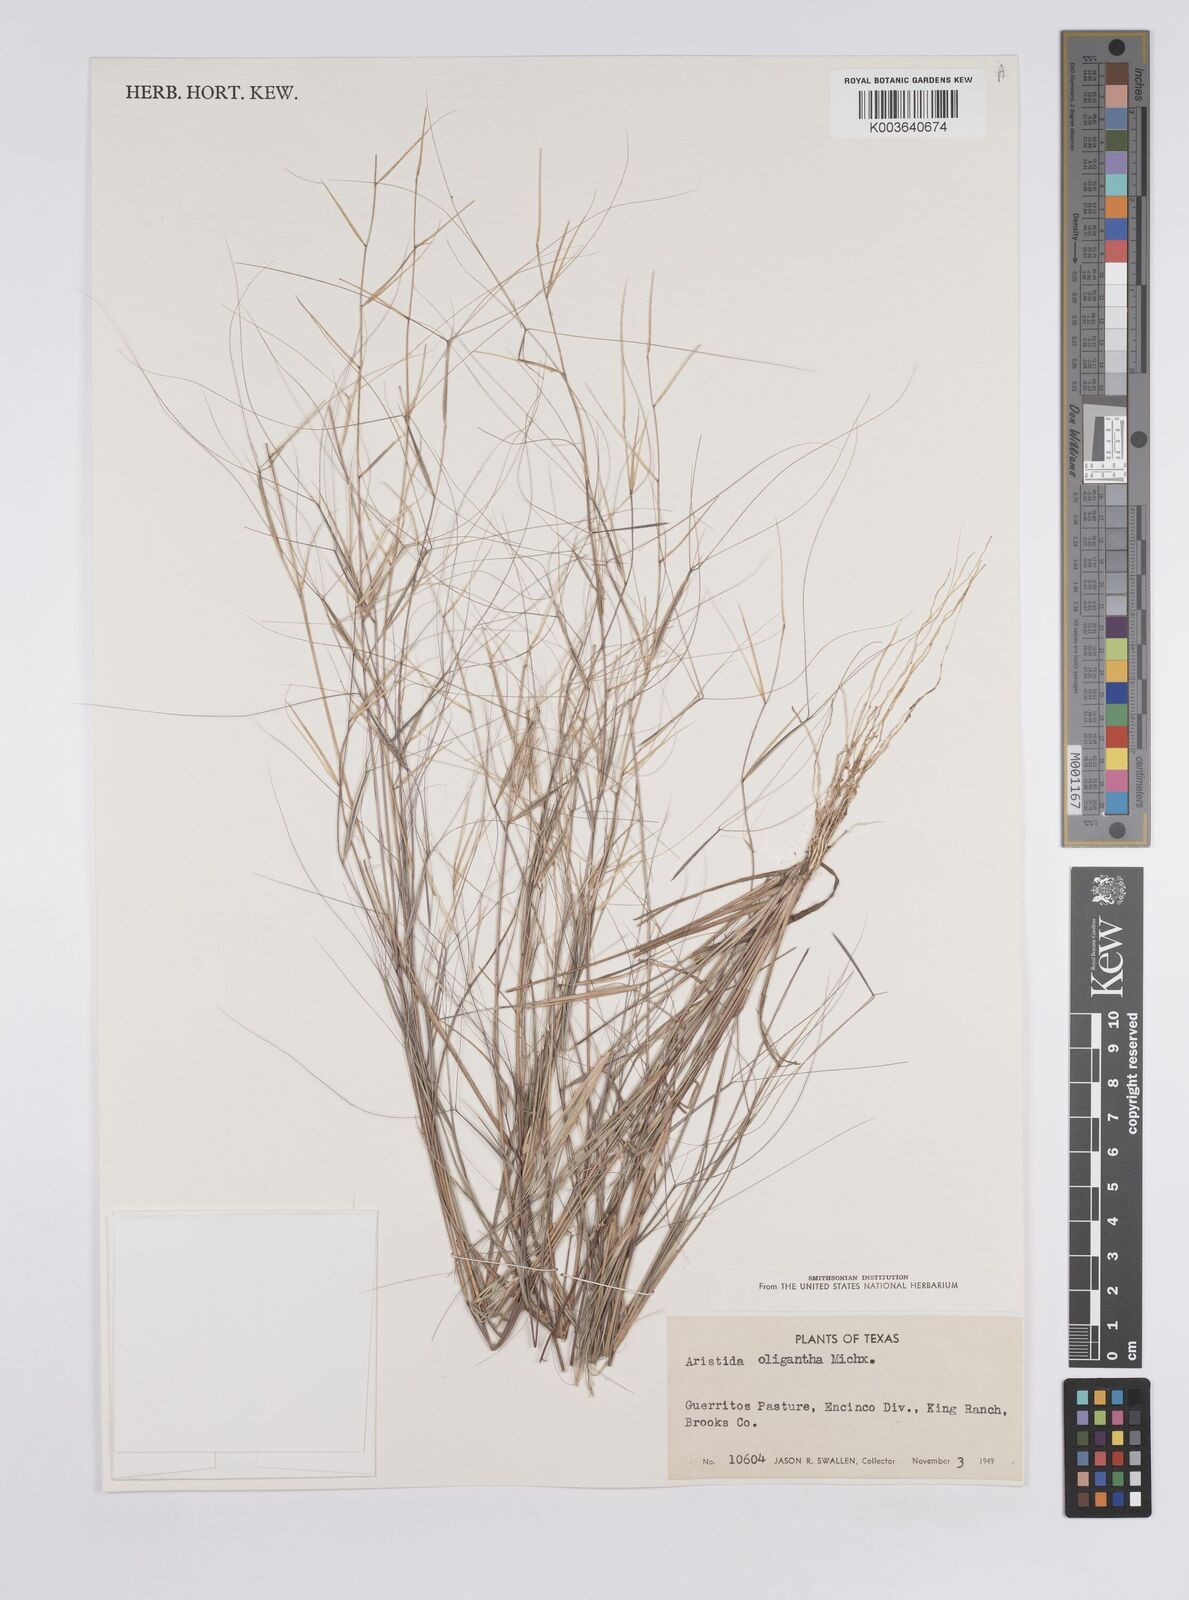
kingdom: Plantae
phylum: Tracheophyta
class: Liliopsida
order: Poales
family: Poaceae
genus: Aristida
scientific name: Aristida oligantha
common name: Few-flowered aristida
